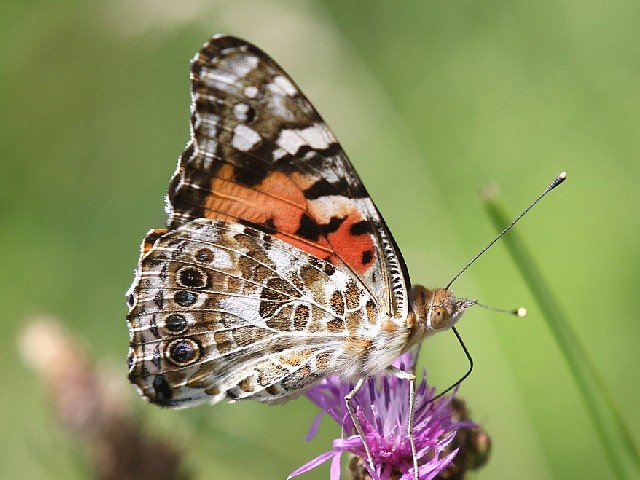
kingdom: Animalia
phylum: Arthropoda
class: Insecta
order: Lepidoptera
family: Nymphalidae
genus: Vanessa
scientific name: Vanessa cardui
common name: Painted Lady
